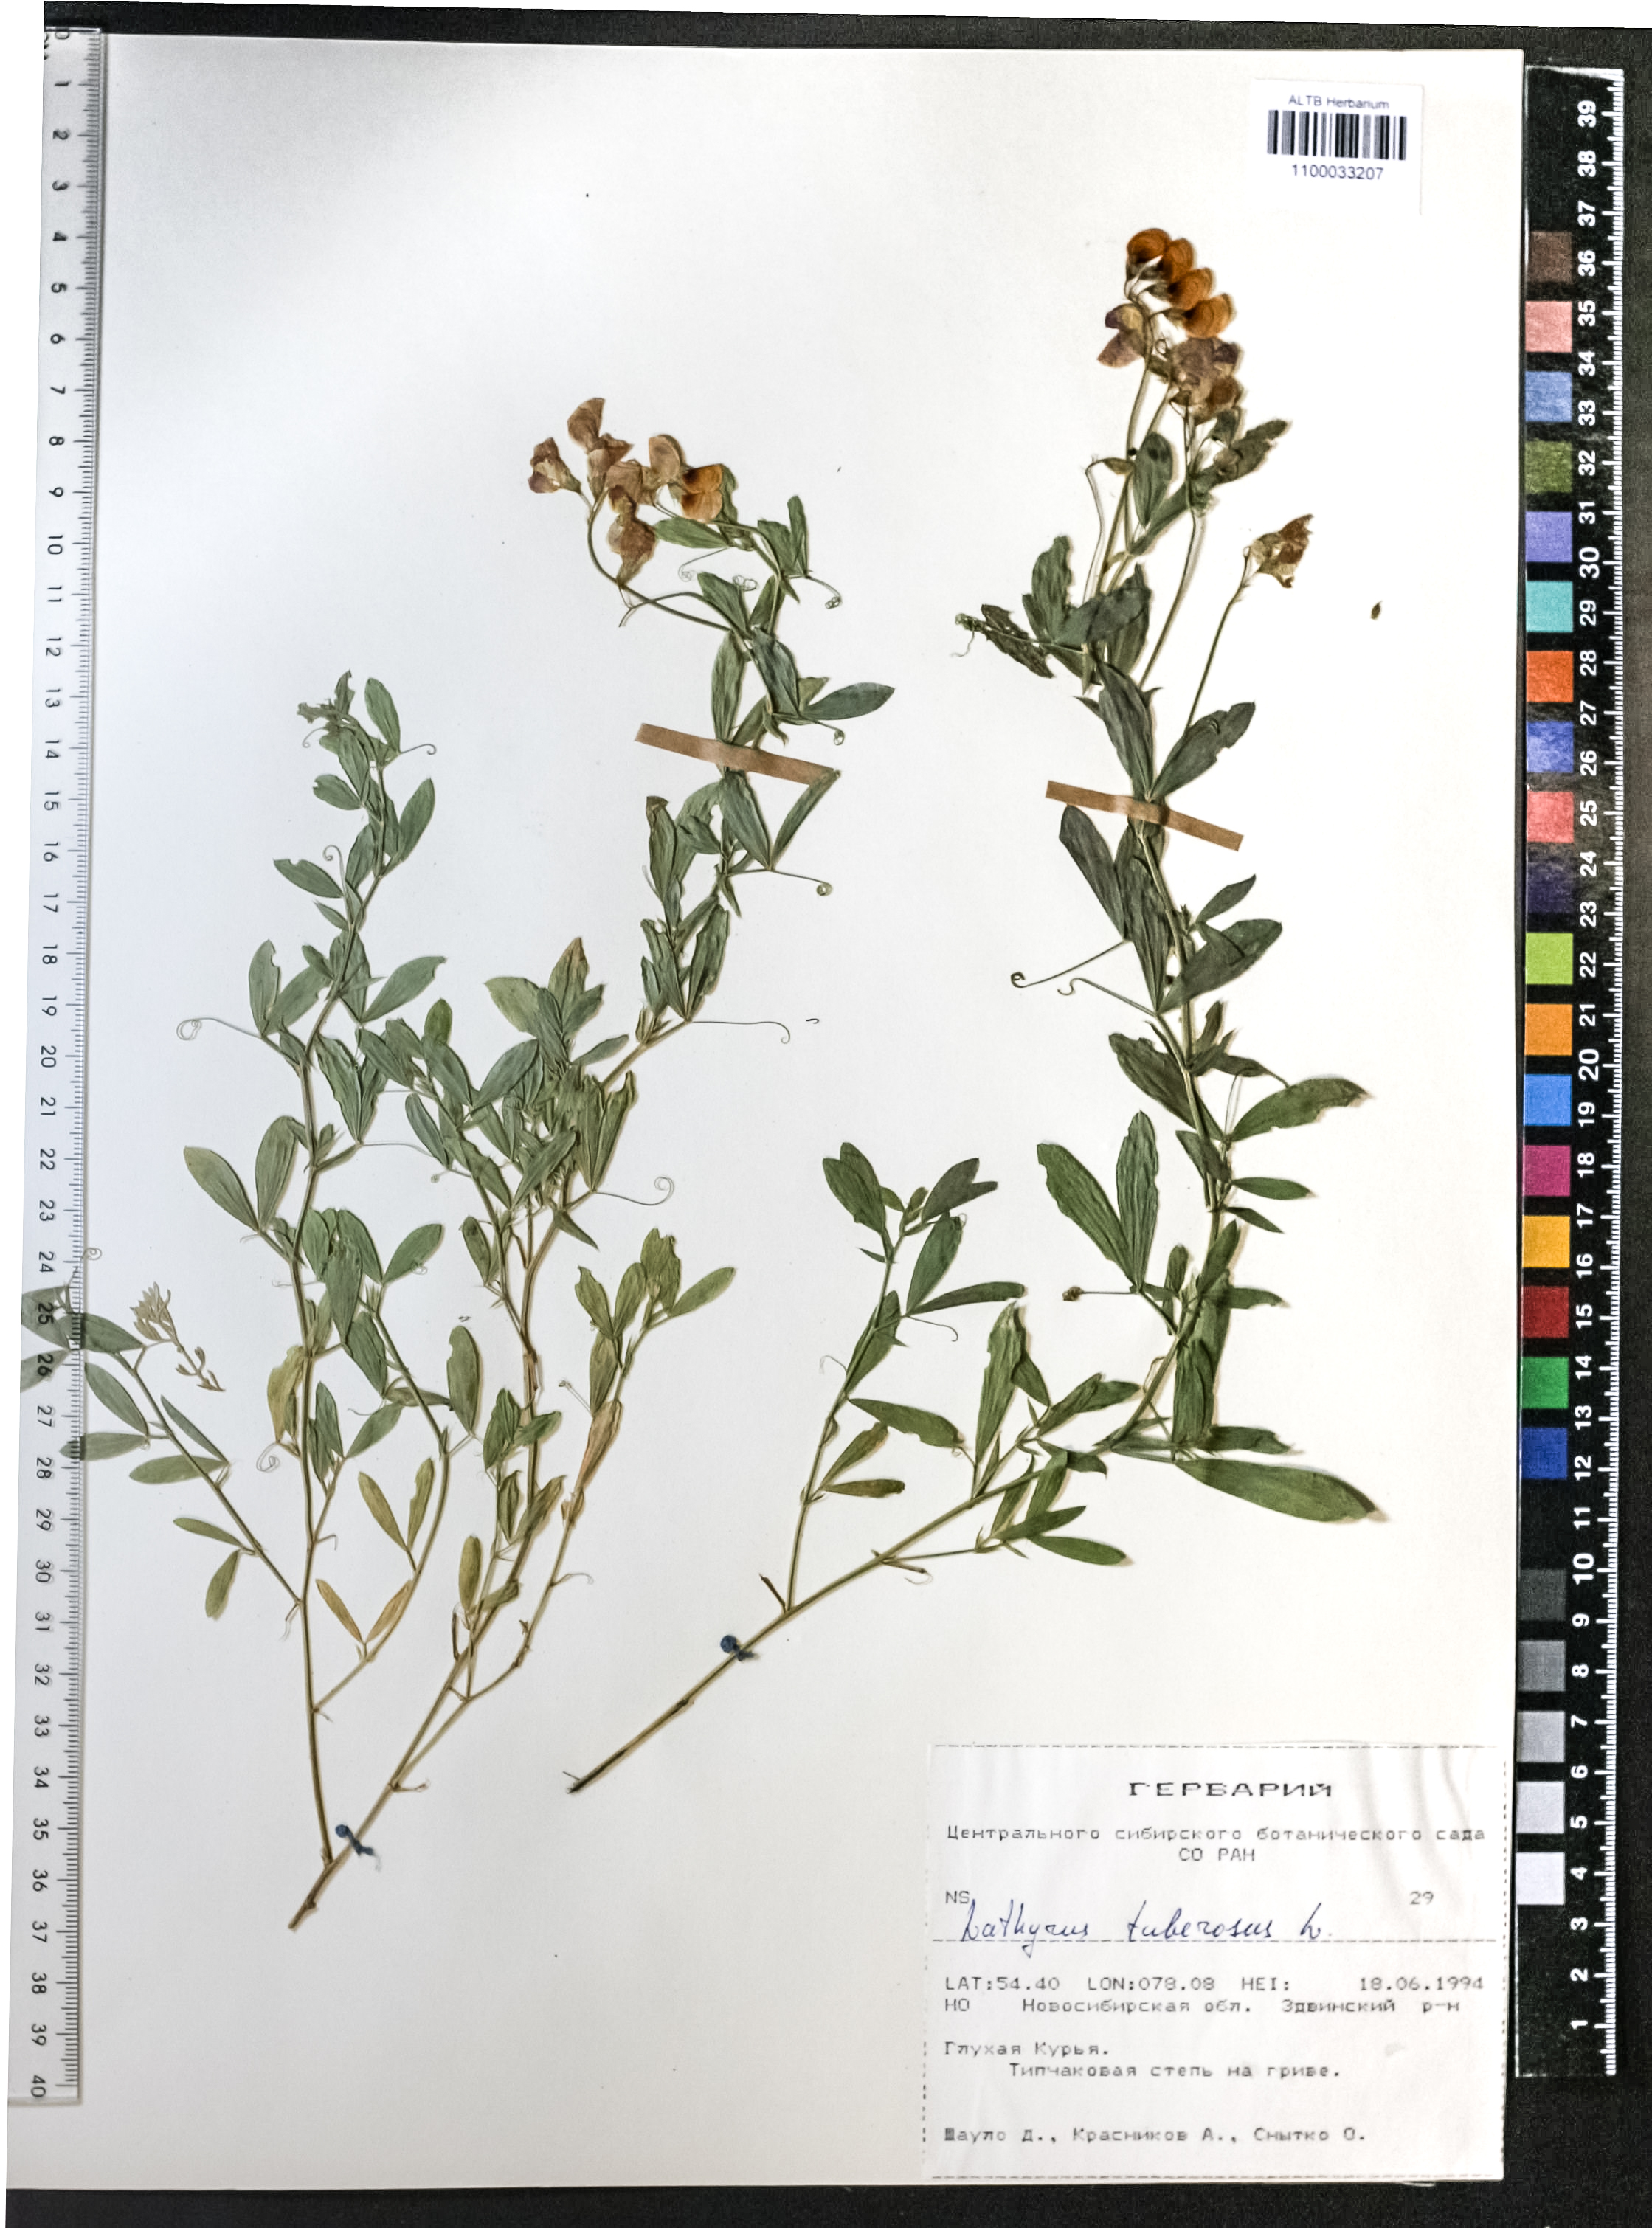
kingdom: Plantae
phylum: Tracheophyta
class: Magnoliopsida
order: Fabales
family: Fabaceae
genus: Lathyrus
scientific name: Lathyrus tuberosus
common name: Tuberous pea
